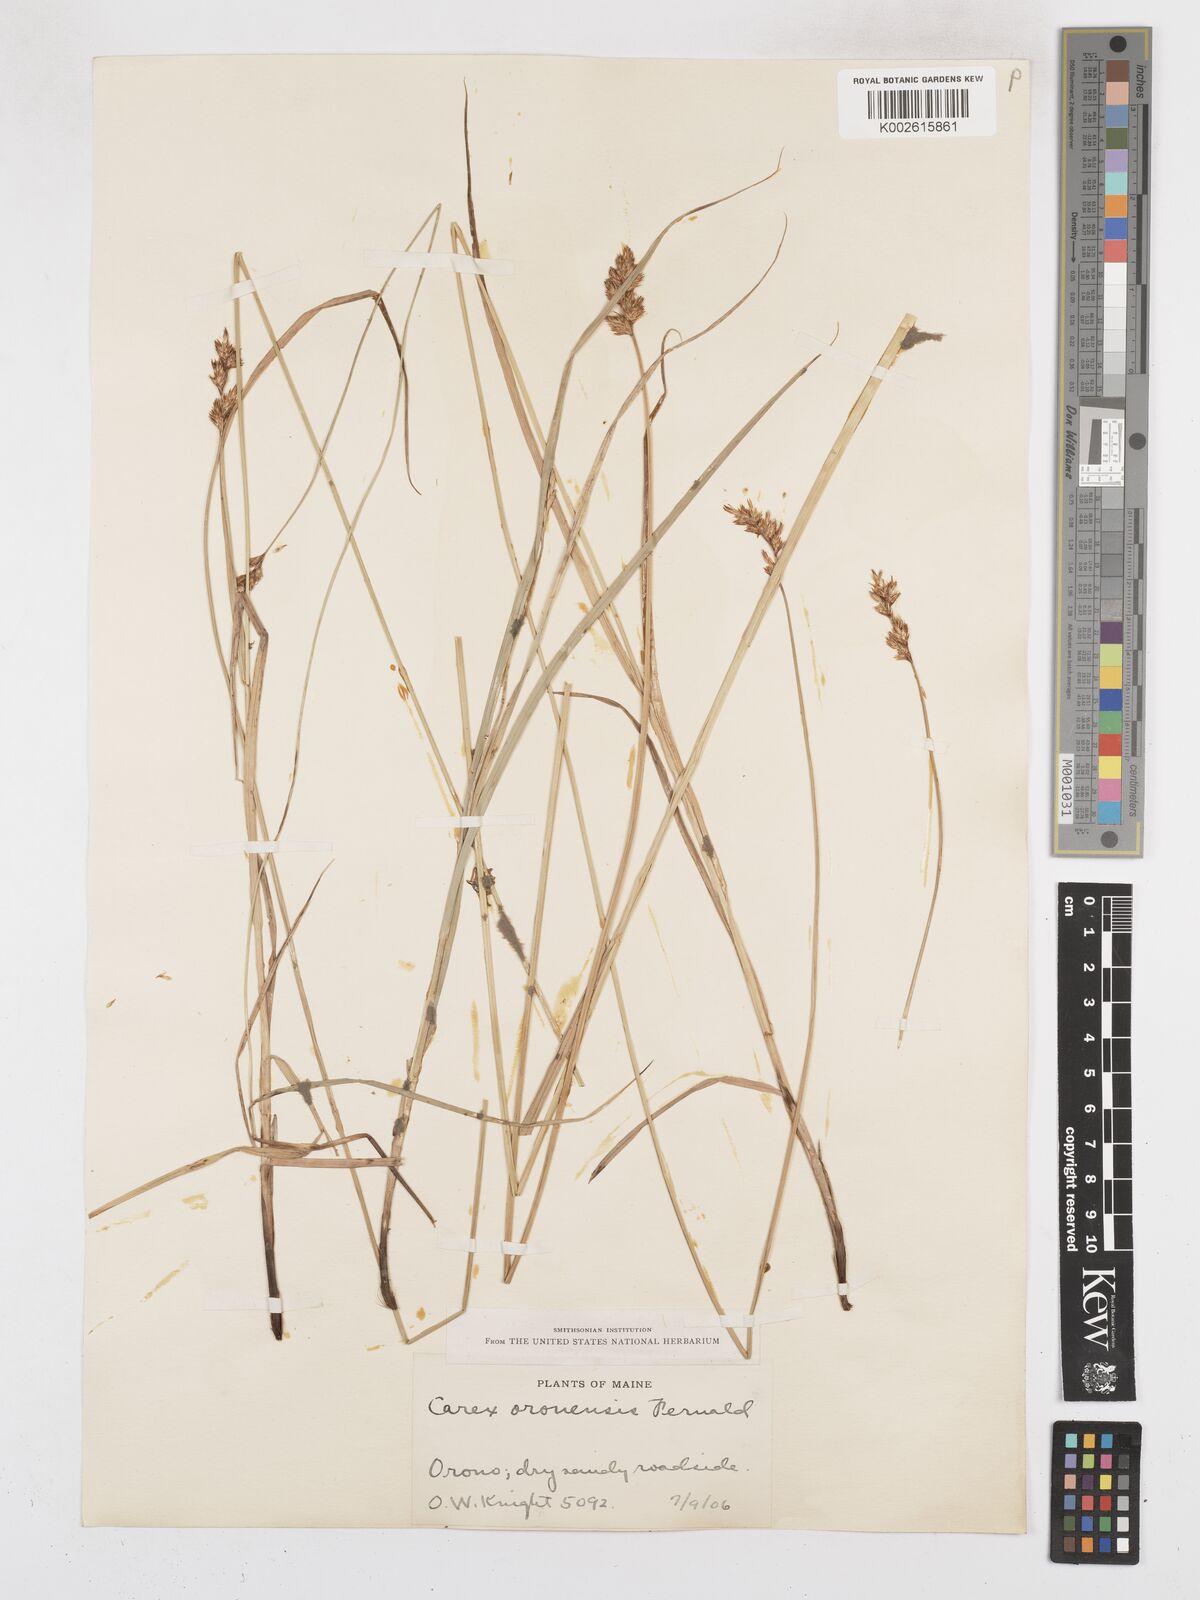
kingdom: Plantae
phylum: Tracheophyta
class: Liliopsida
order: Poales
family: Cyperaceae
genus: Carex
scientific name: Carex oronensis
